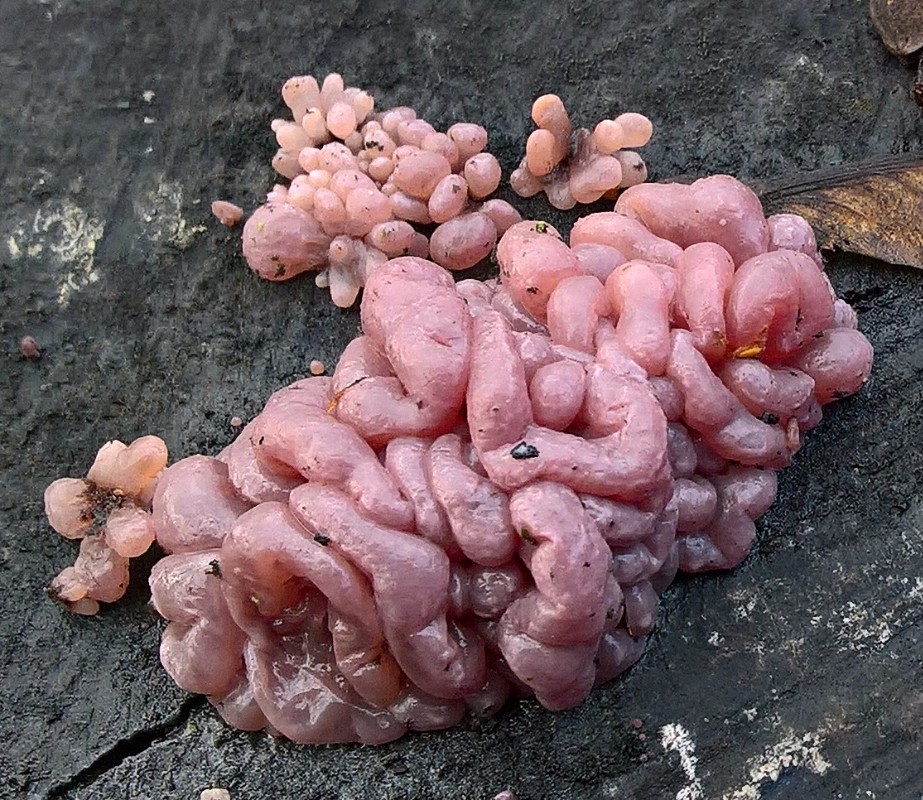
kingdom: Fungi
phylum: Ascomycota
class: Leotiomycetes
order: Helotiales
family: Gelatinodiscaceae
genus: Ascocoryne
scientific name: Ascocoryne sarcoides
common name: rødlilla sejskive
